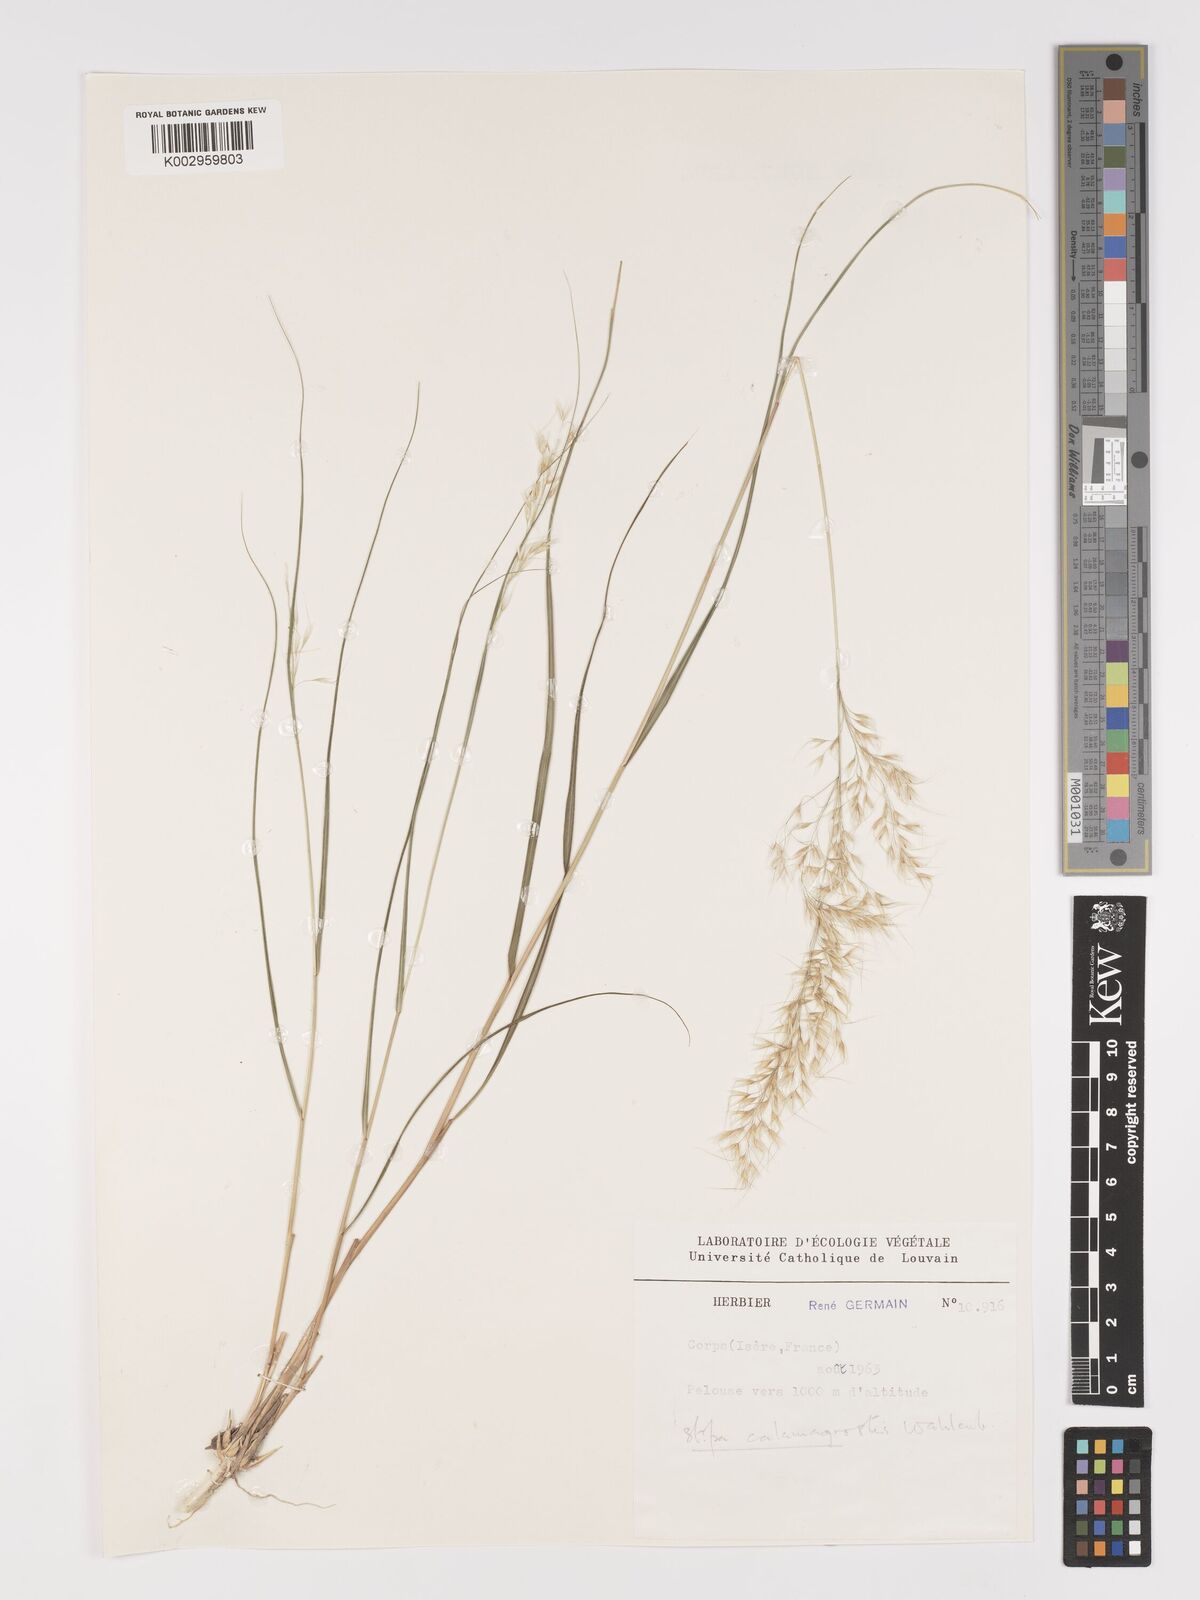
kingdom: Plantae
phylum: Tracheophyta
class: Liliopsida
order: Poales
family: Poaceae
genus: Achnatherum
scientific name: Achnatherum calamagrostis
